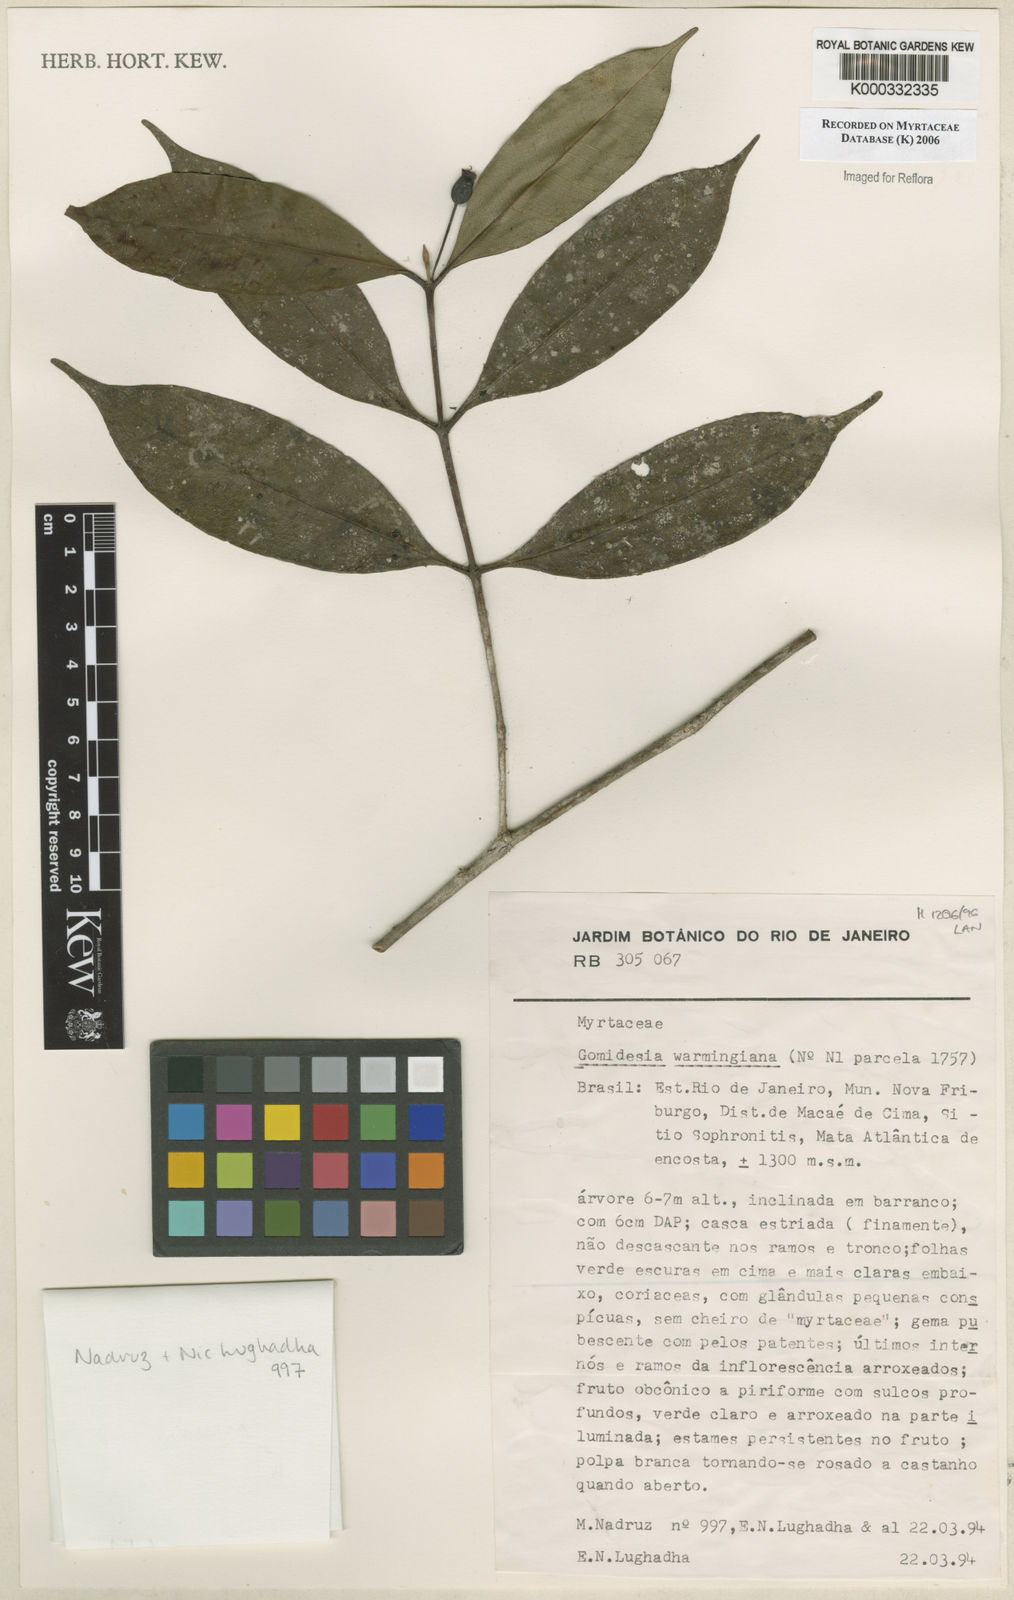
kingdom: Plantae
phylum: Tracheophyta
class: Magnoliopsida
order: Myrtales
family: Myrtaceae
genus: Myrcia
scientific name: Myrcia warmingiana
